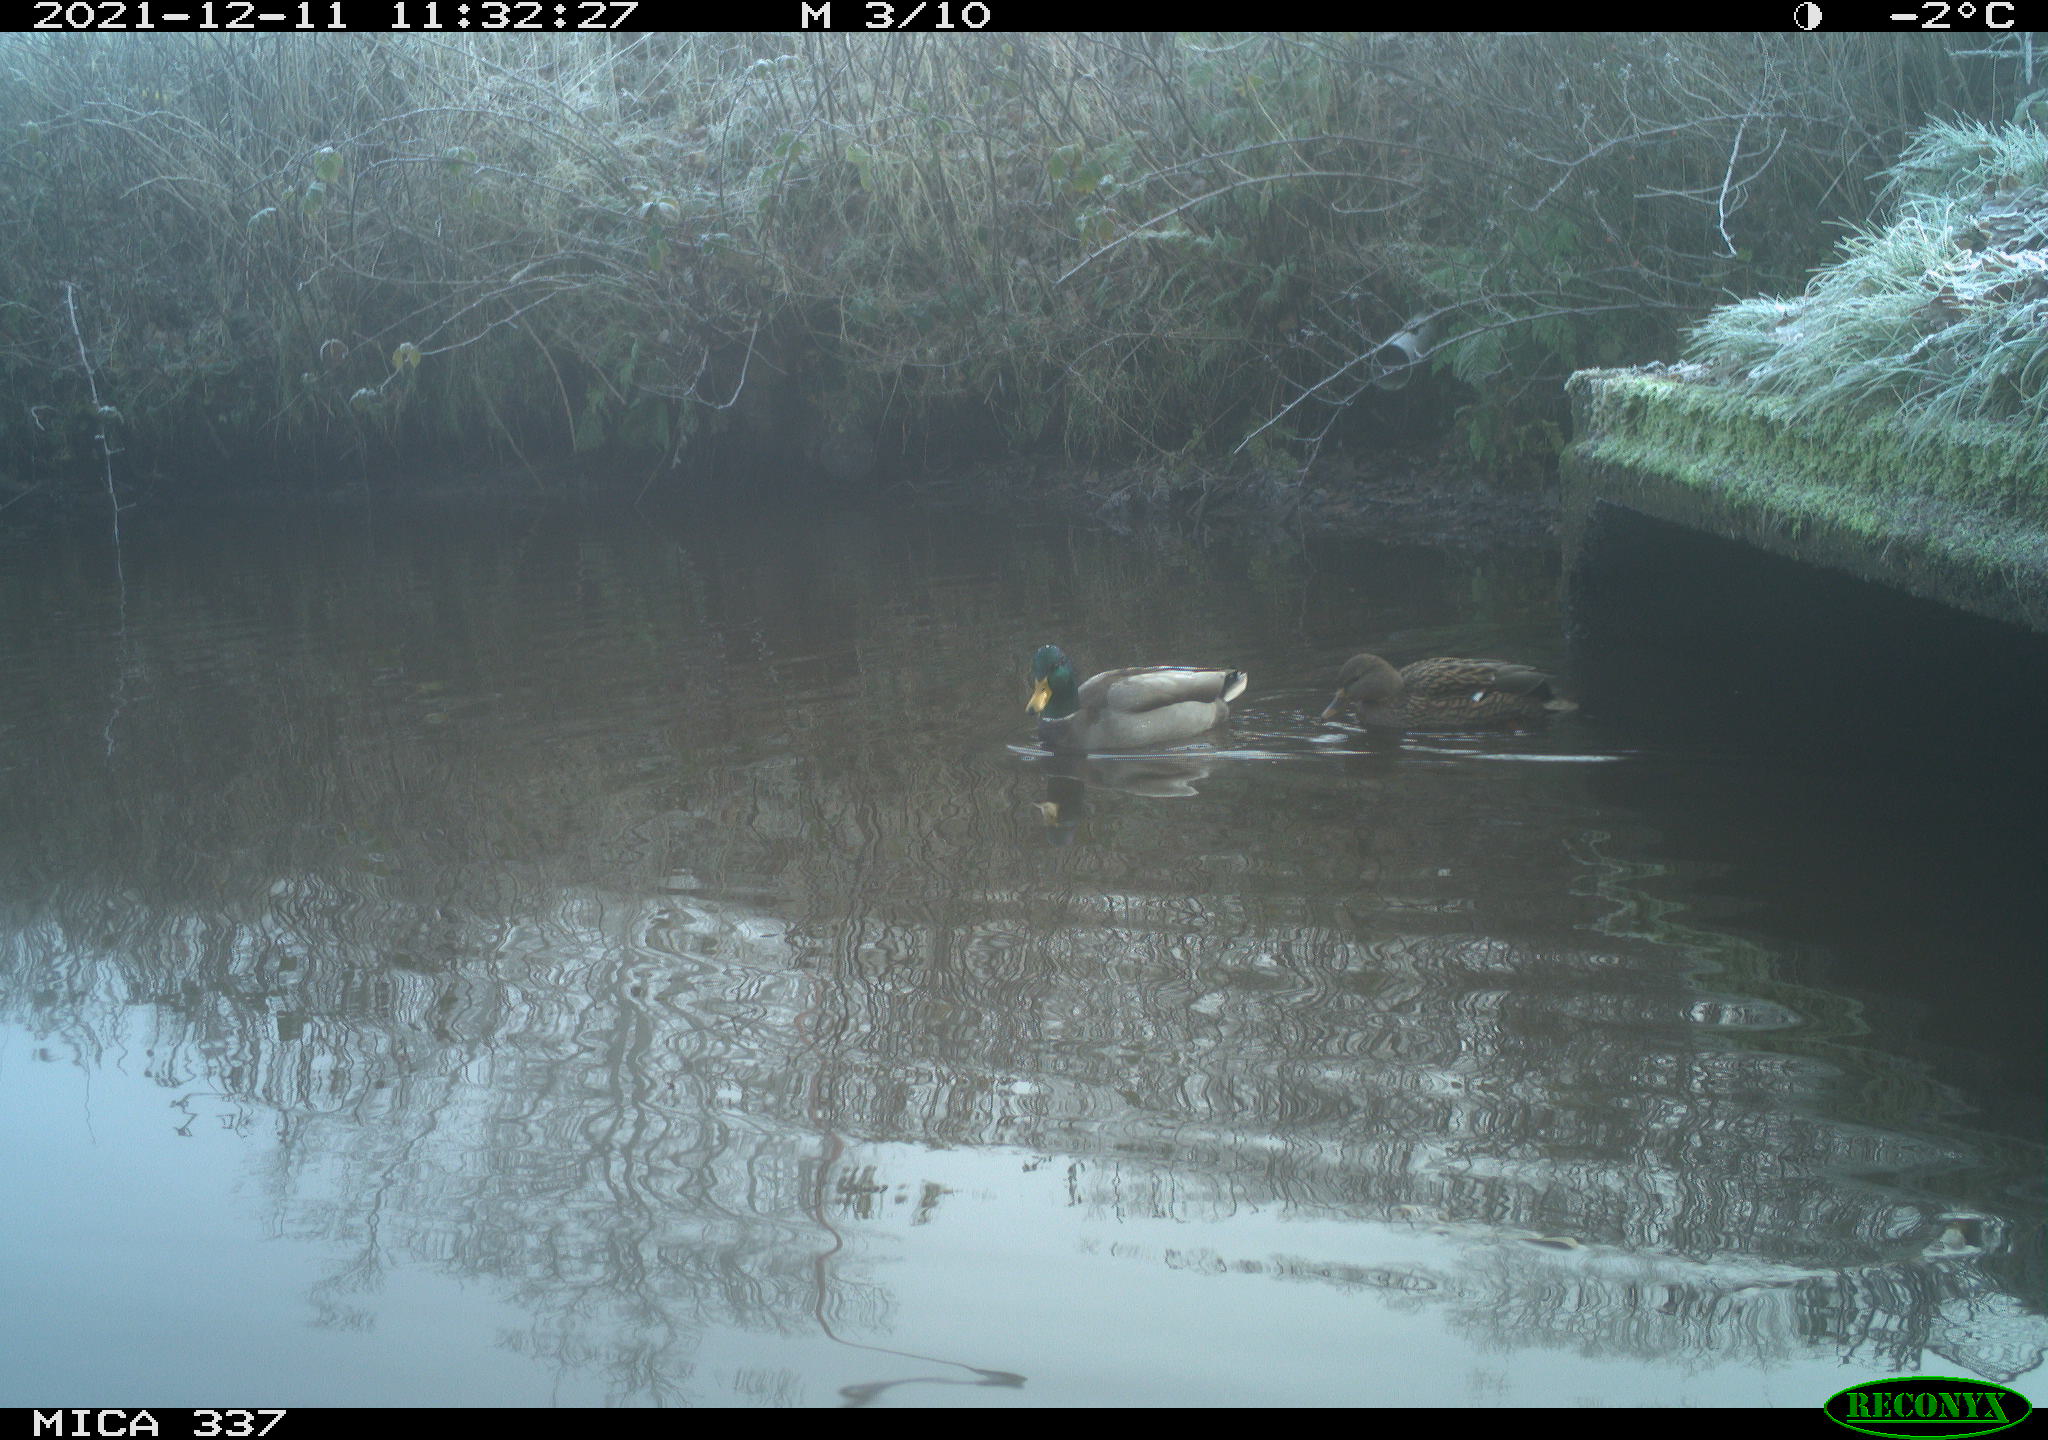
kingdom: Animalia
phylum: Chordata
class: Aves
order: Anseriformes
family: Anatidae
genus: Anas
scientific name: Anas platyrhynchos
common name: Mallard
